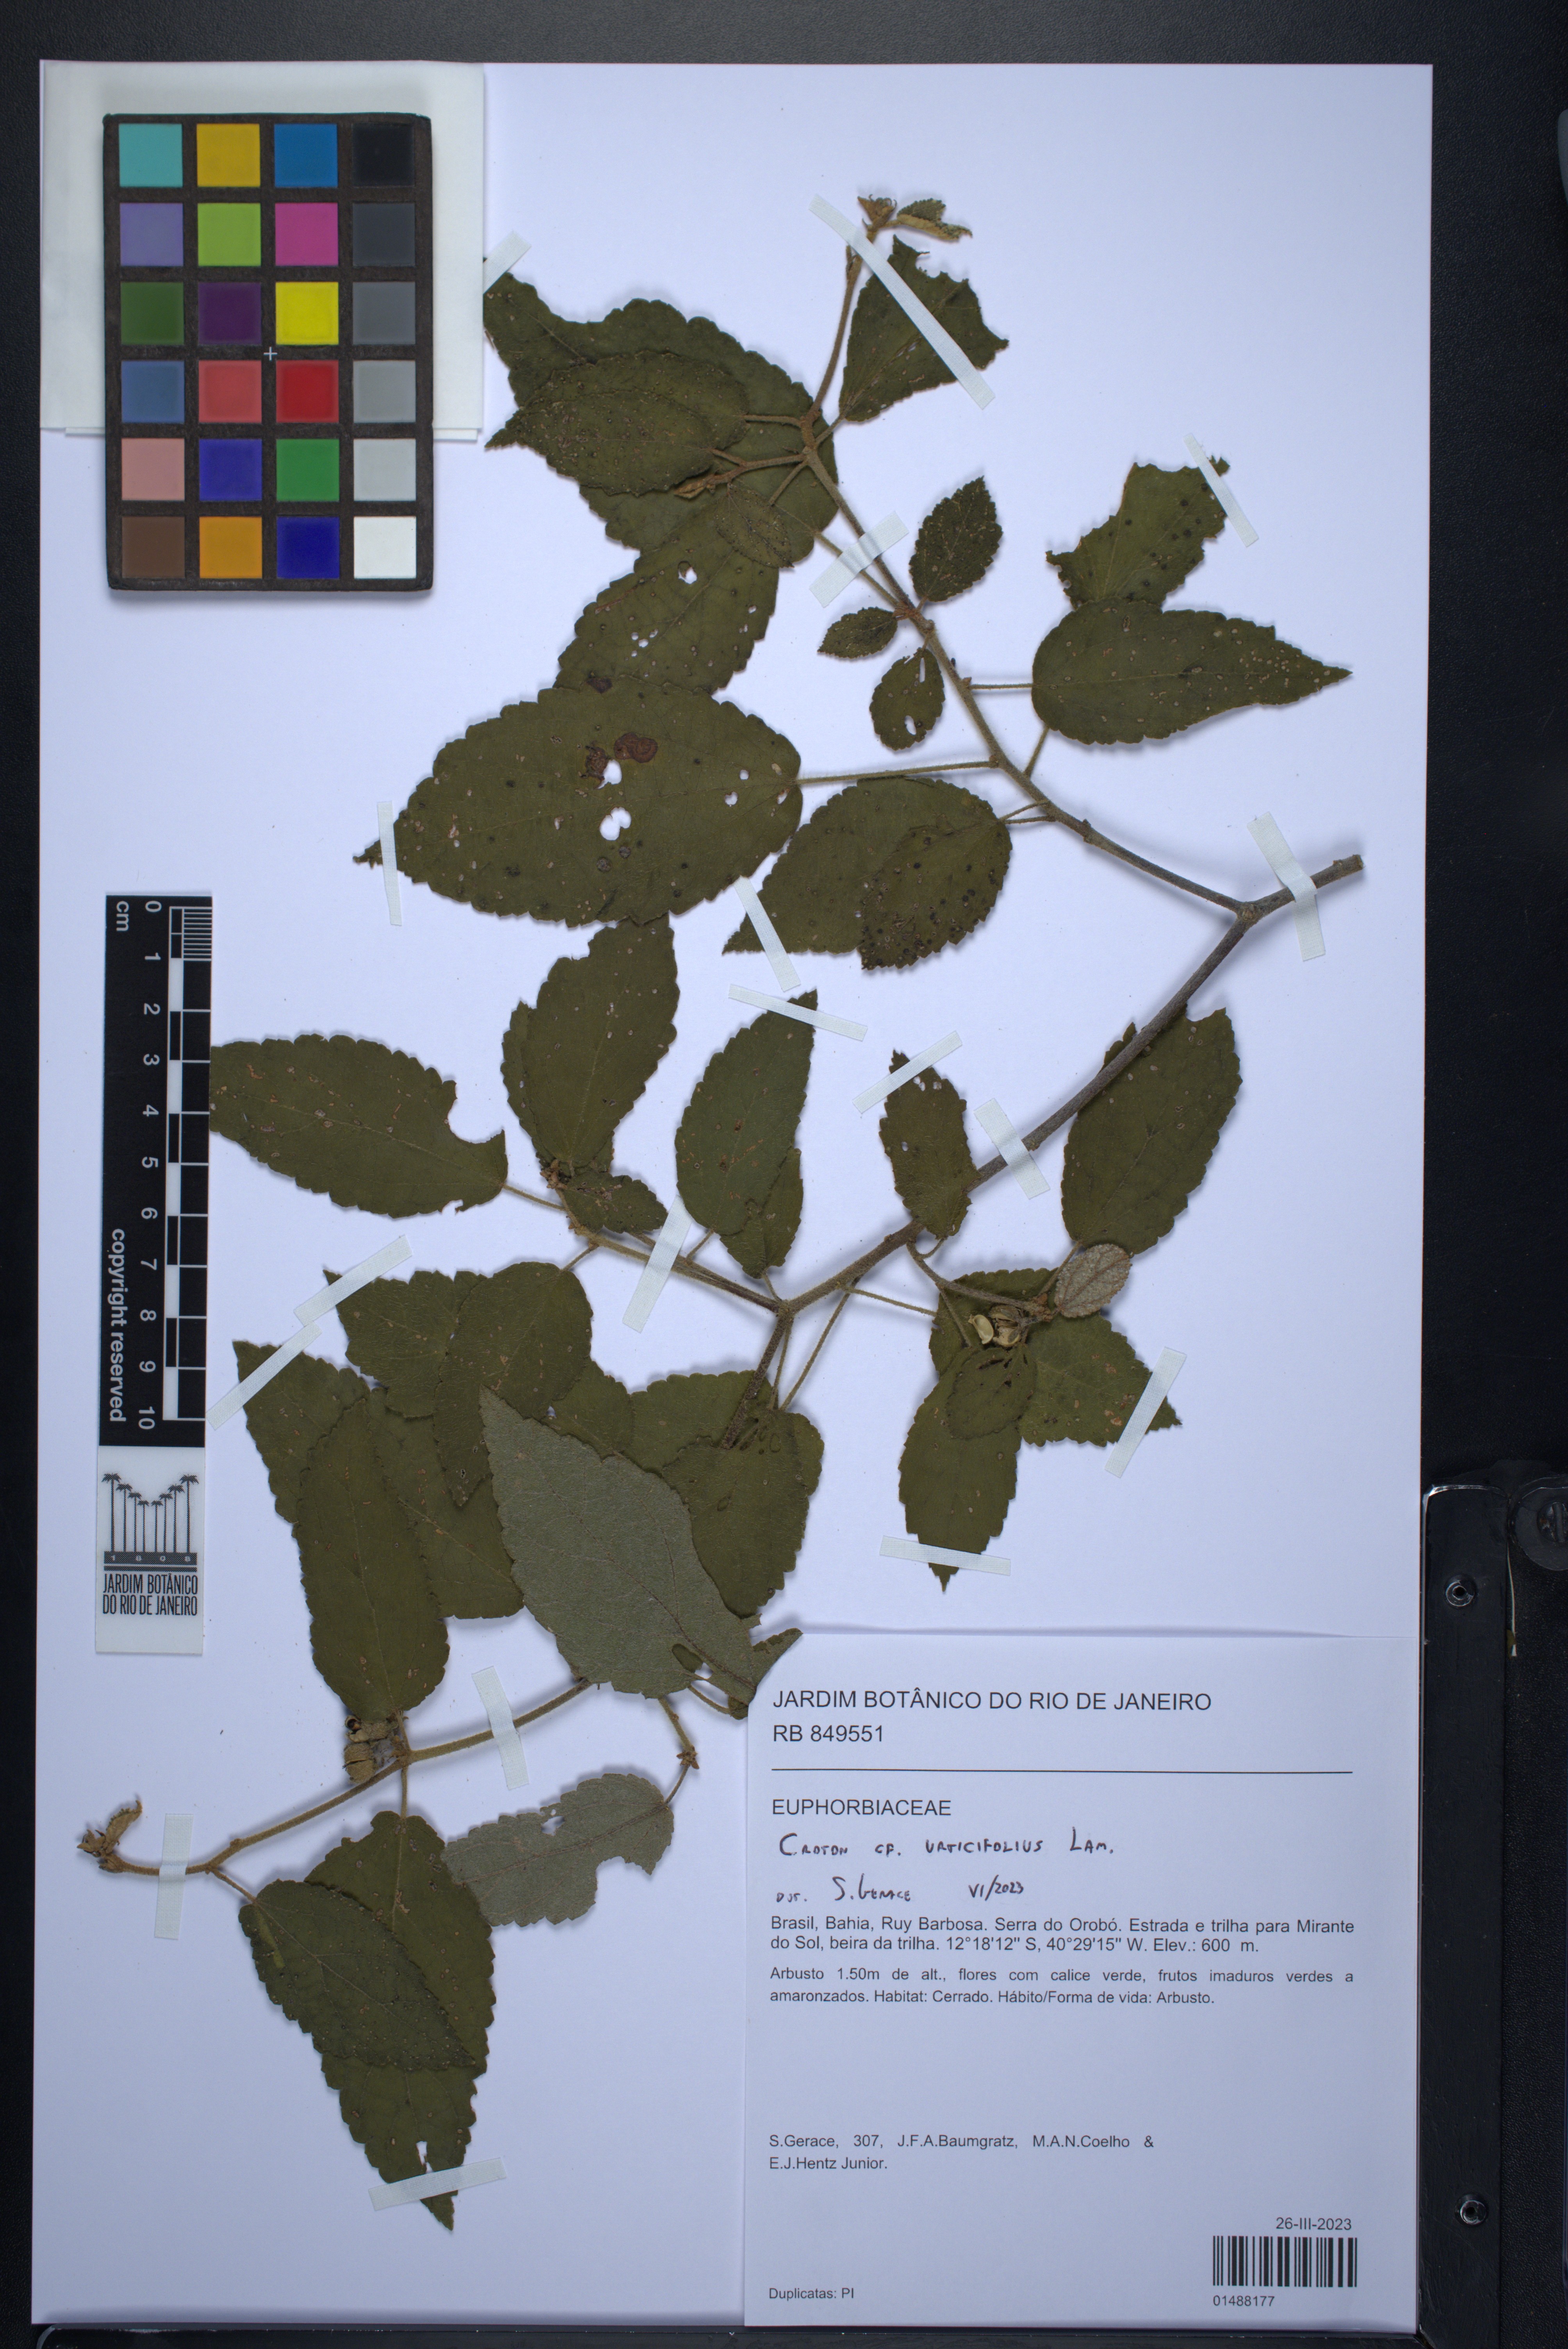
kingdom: Plantae
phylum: Tracheophyta
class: Magnoliopsida
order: Malpighiales
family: Euphorbiaceae
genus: Croton
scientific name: Croton urticifolius
